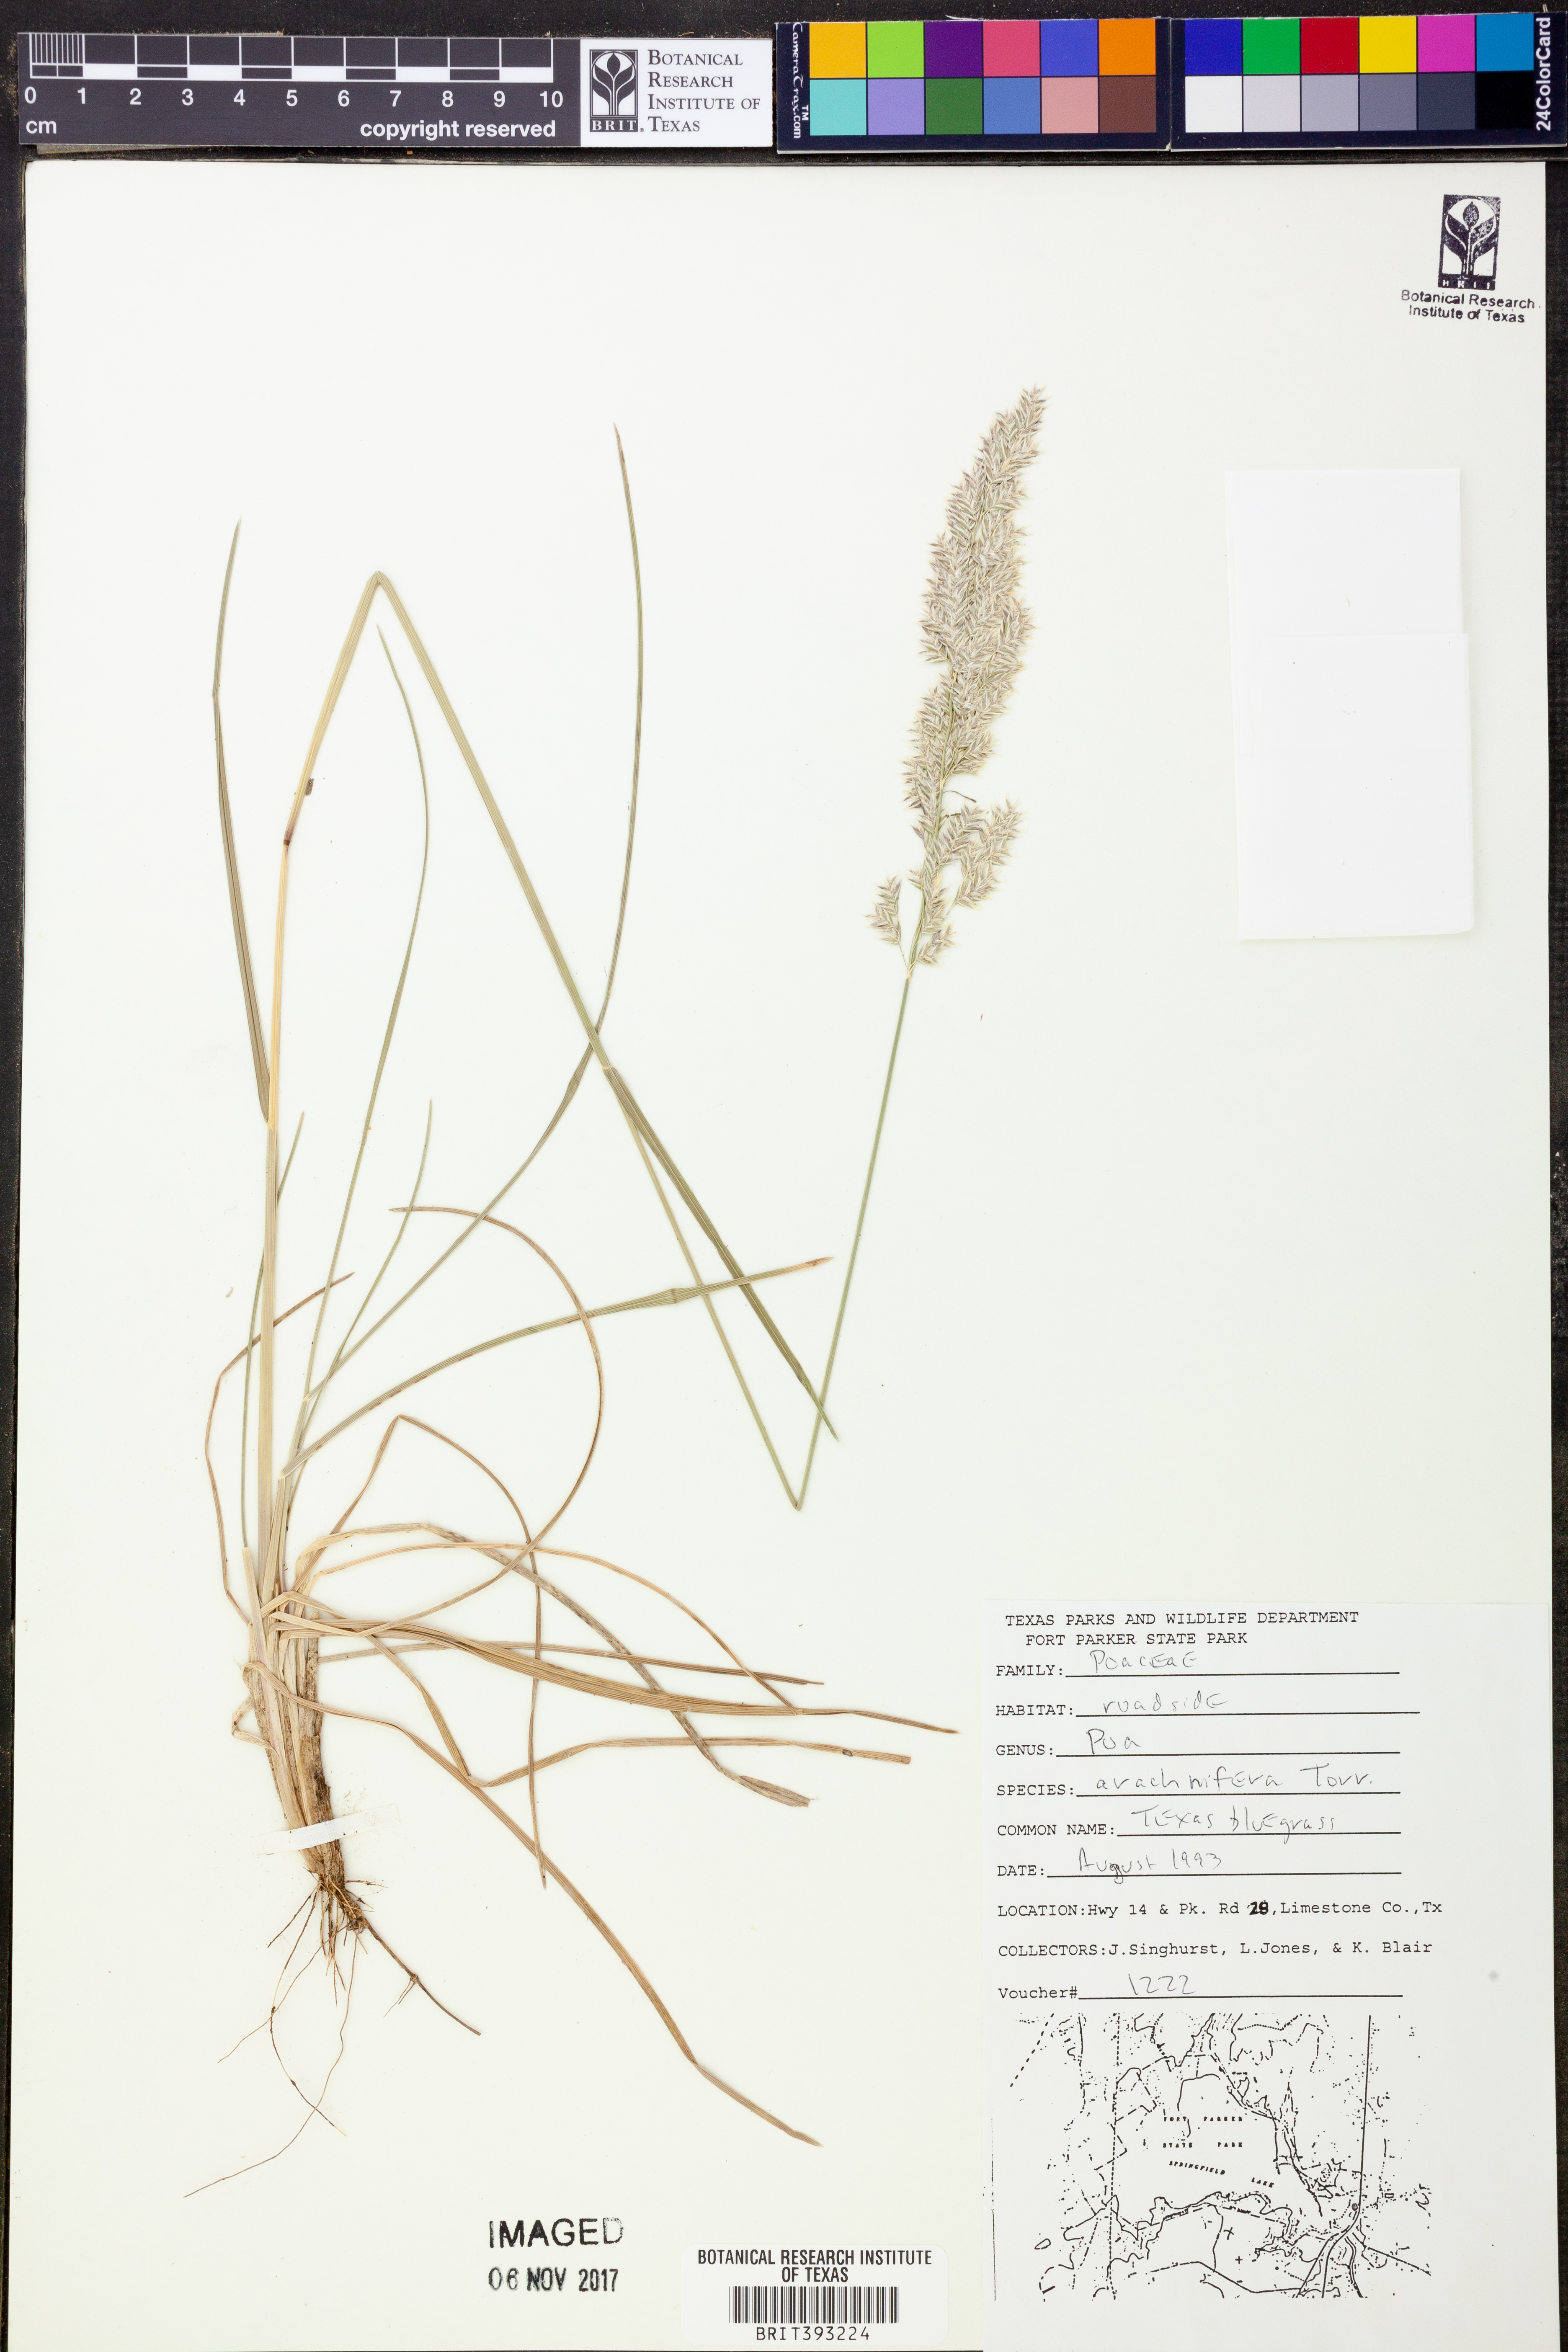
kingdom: Plantae
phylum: Tracheophyta
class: Liliopsida
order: Poales
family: Poaceae
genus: Poa
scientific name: Poa arachnifera
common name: Texas bluegrass
